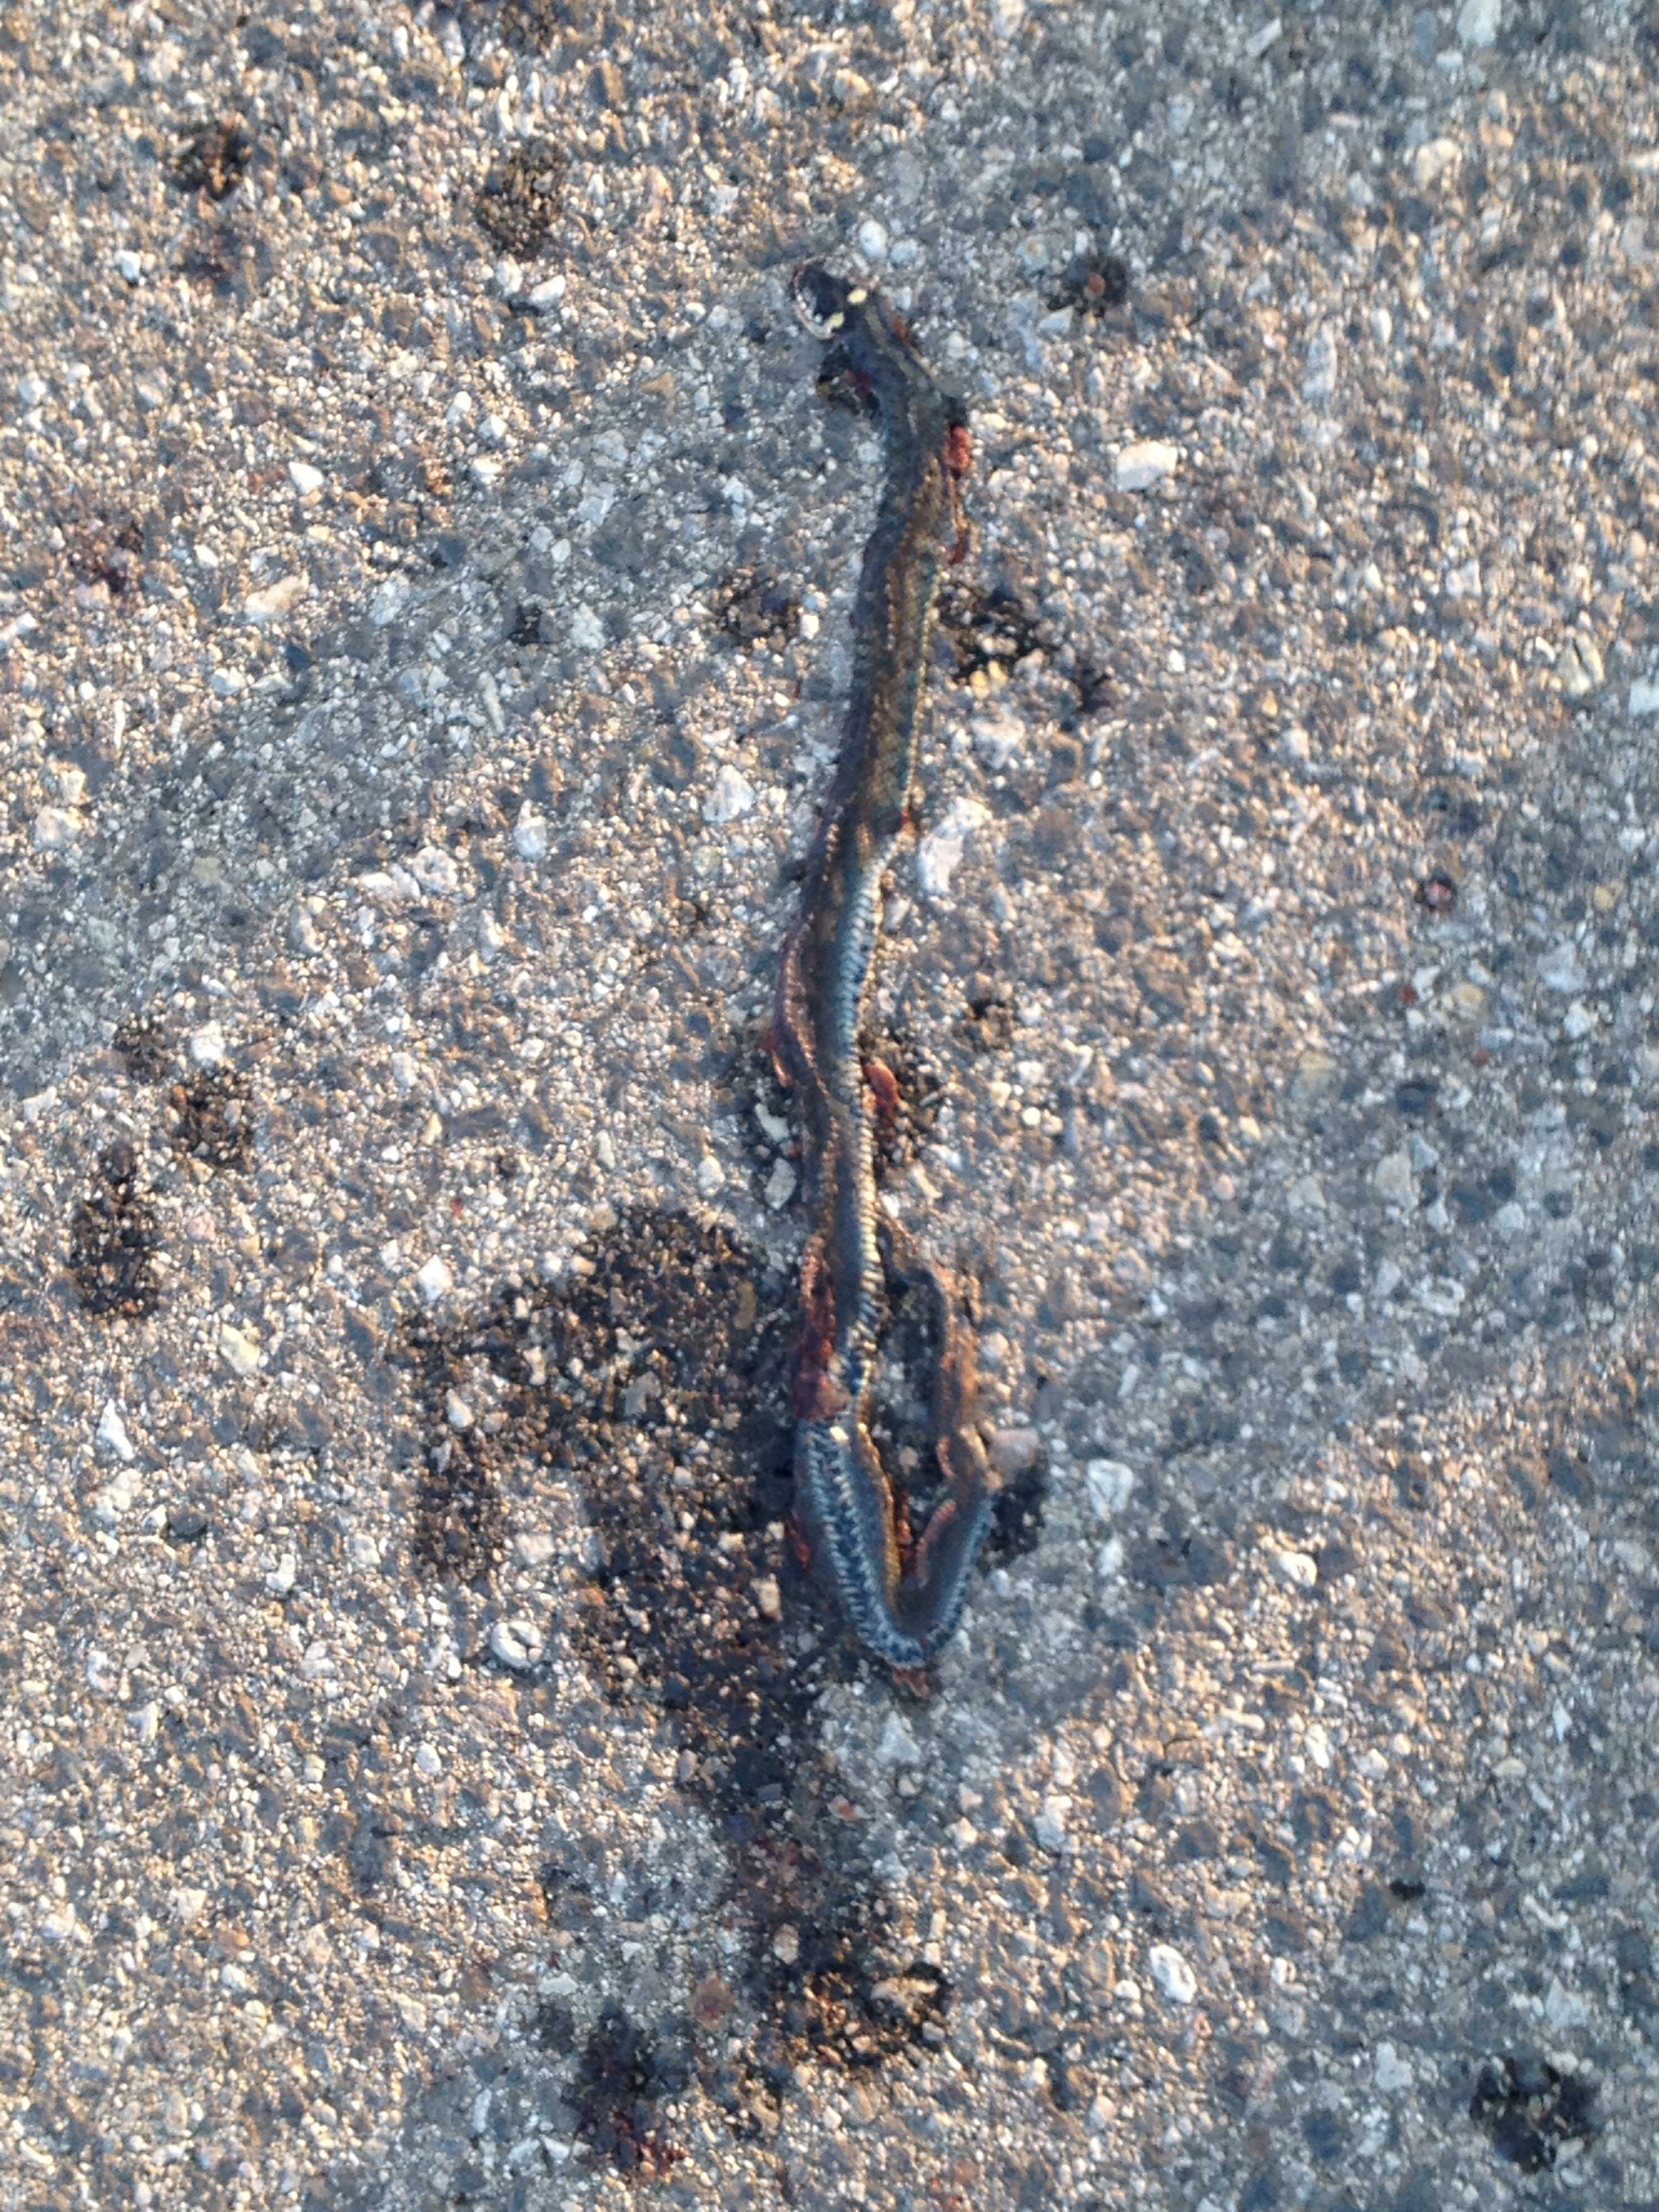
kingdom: Animalia
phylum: Chordata
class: Squamata
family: Colubridae
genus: Natrix
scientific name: Natrix natrix
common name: Grass snake
